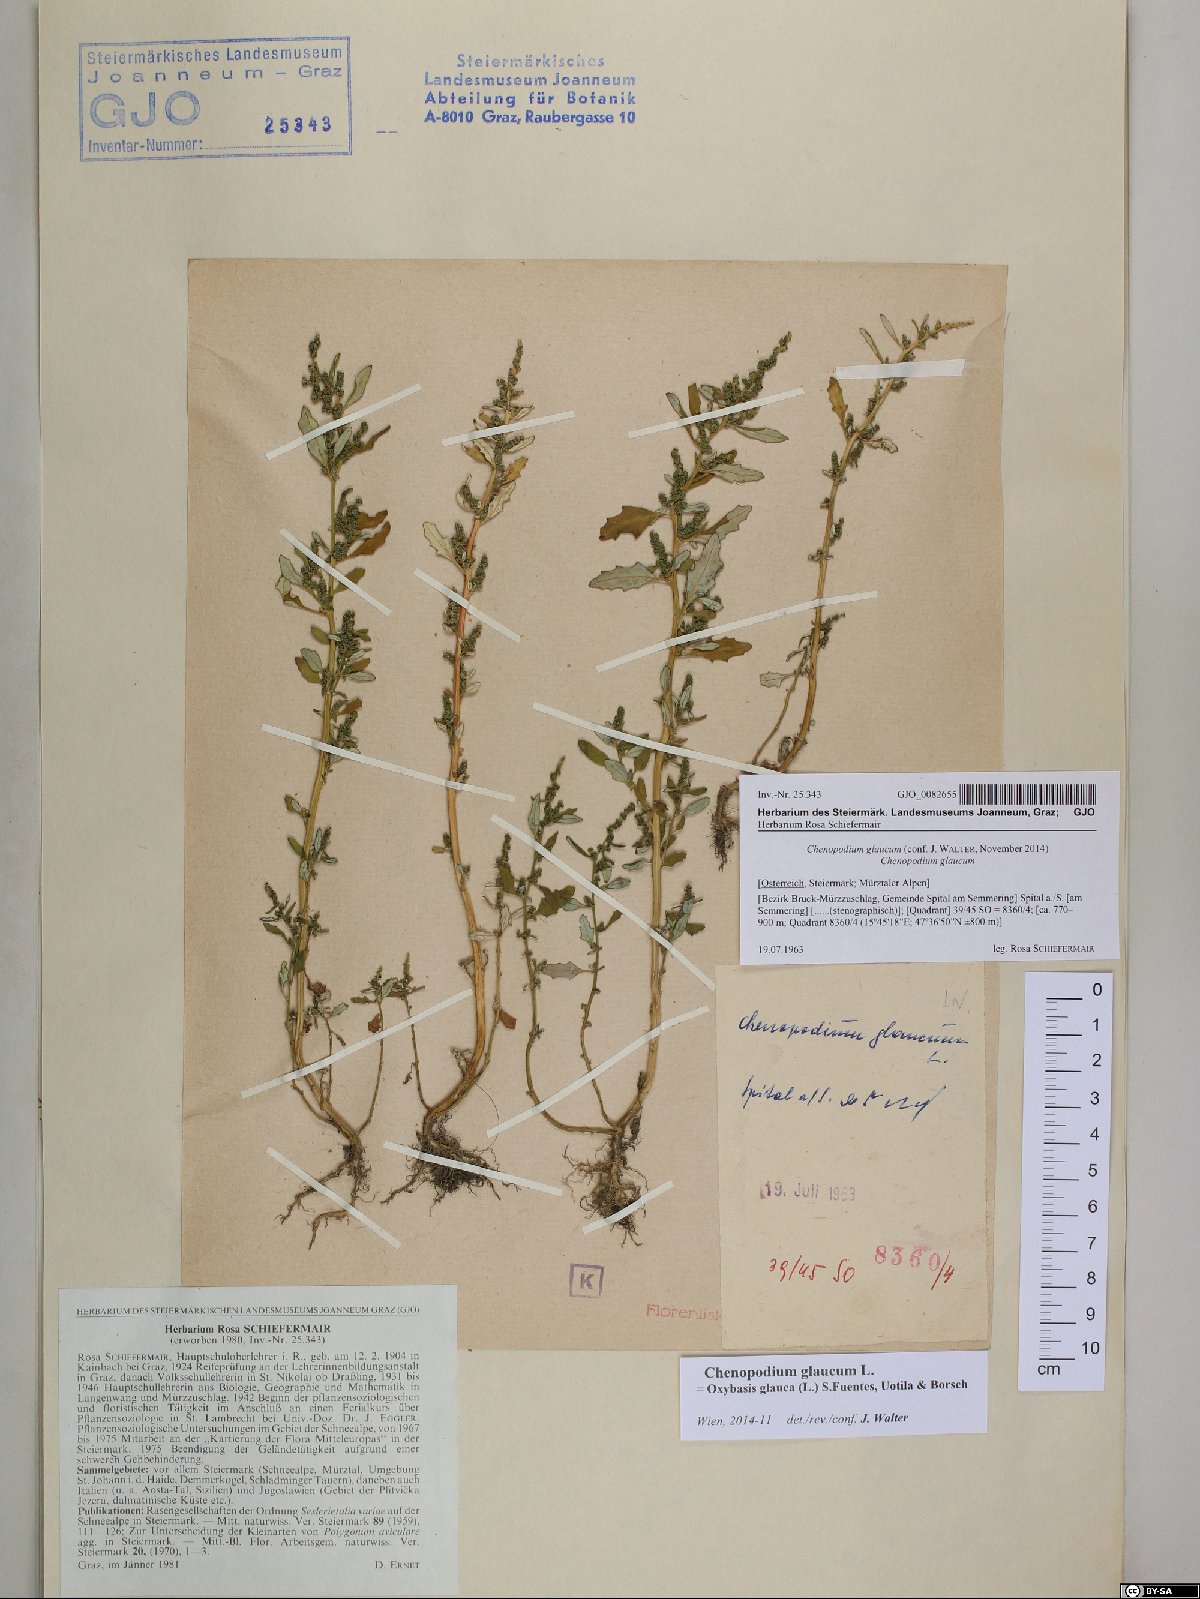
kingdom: Plantae
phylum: Tracheophyta
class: Magnoliopsida
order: Caryophyllales
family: Amaranthaceae
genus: Oxybasis
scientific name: Oxybasis glauca
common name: Glaucous goosefoot
